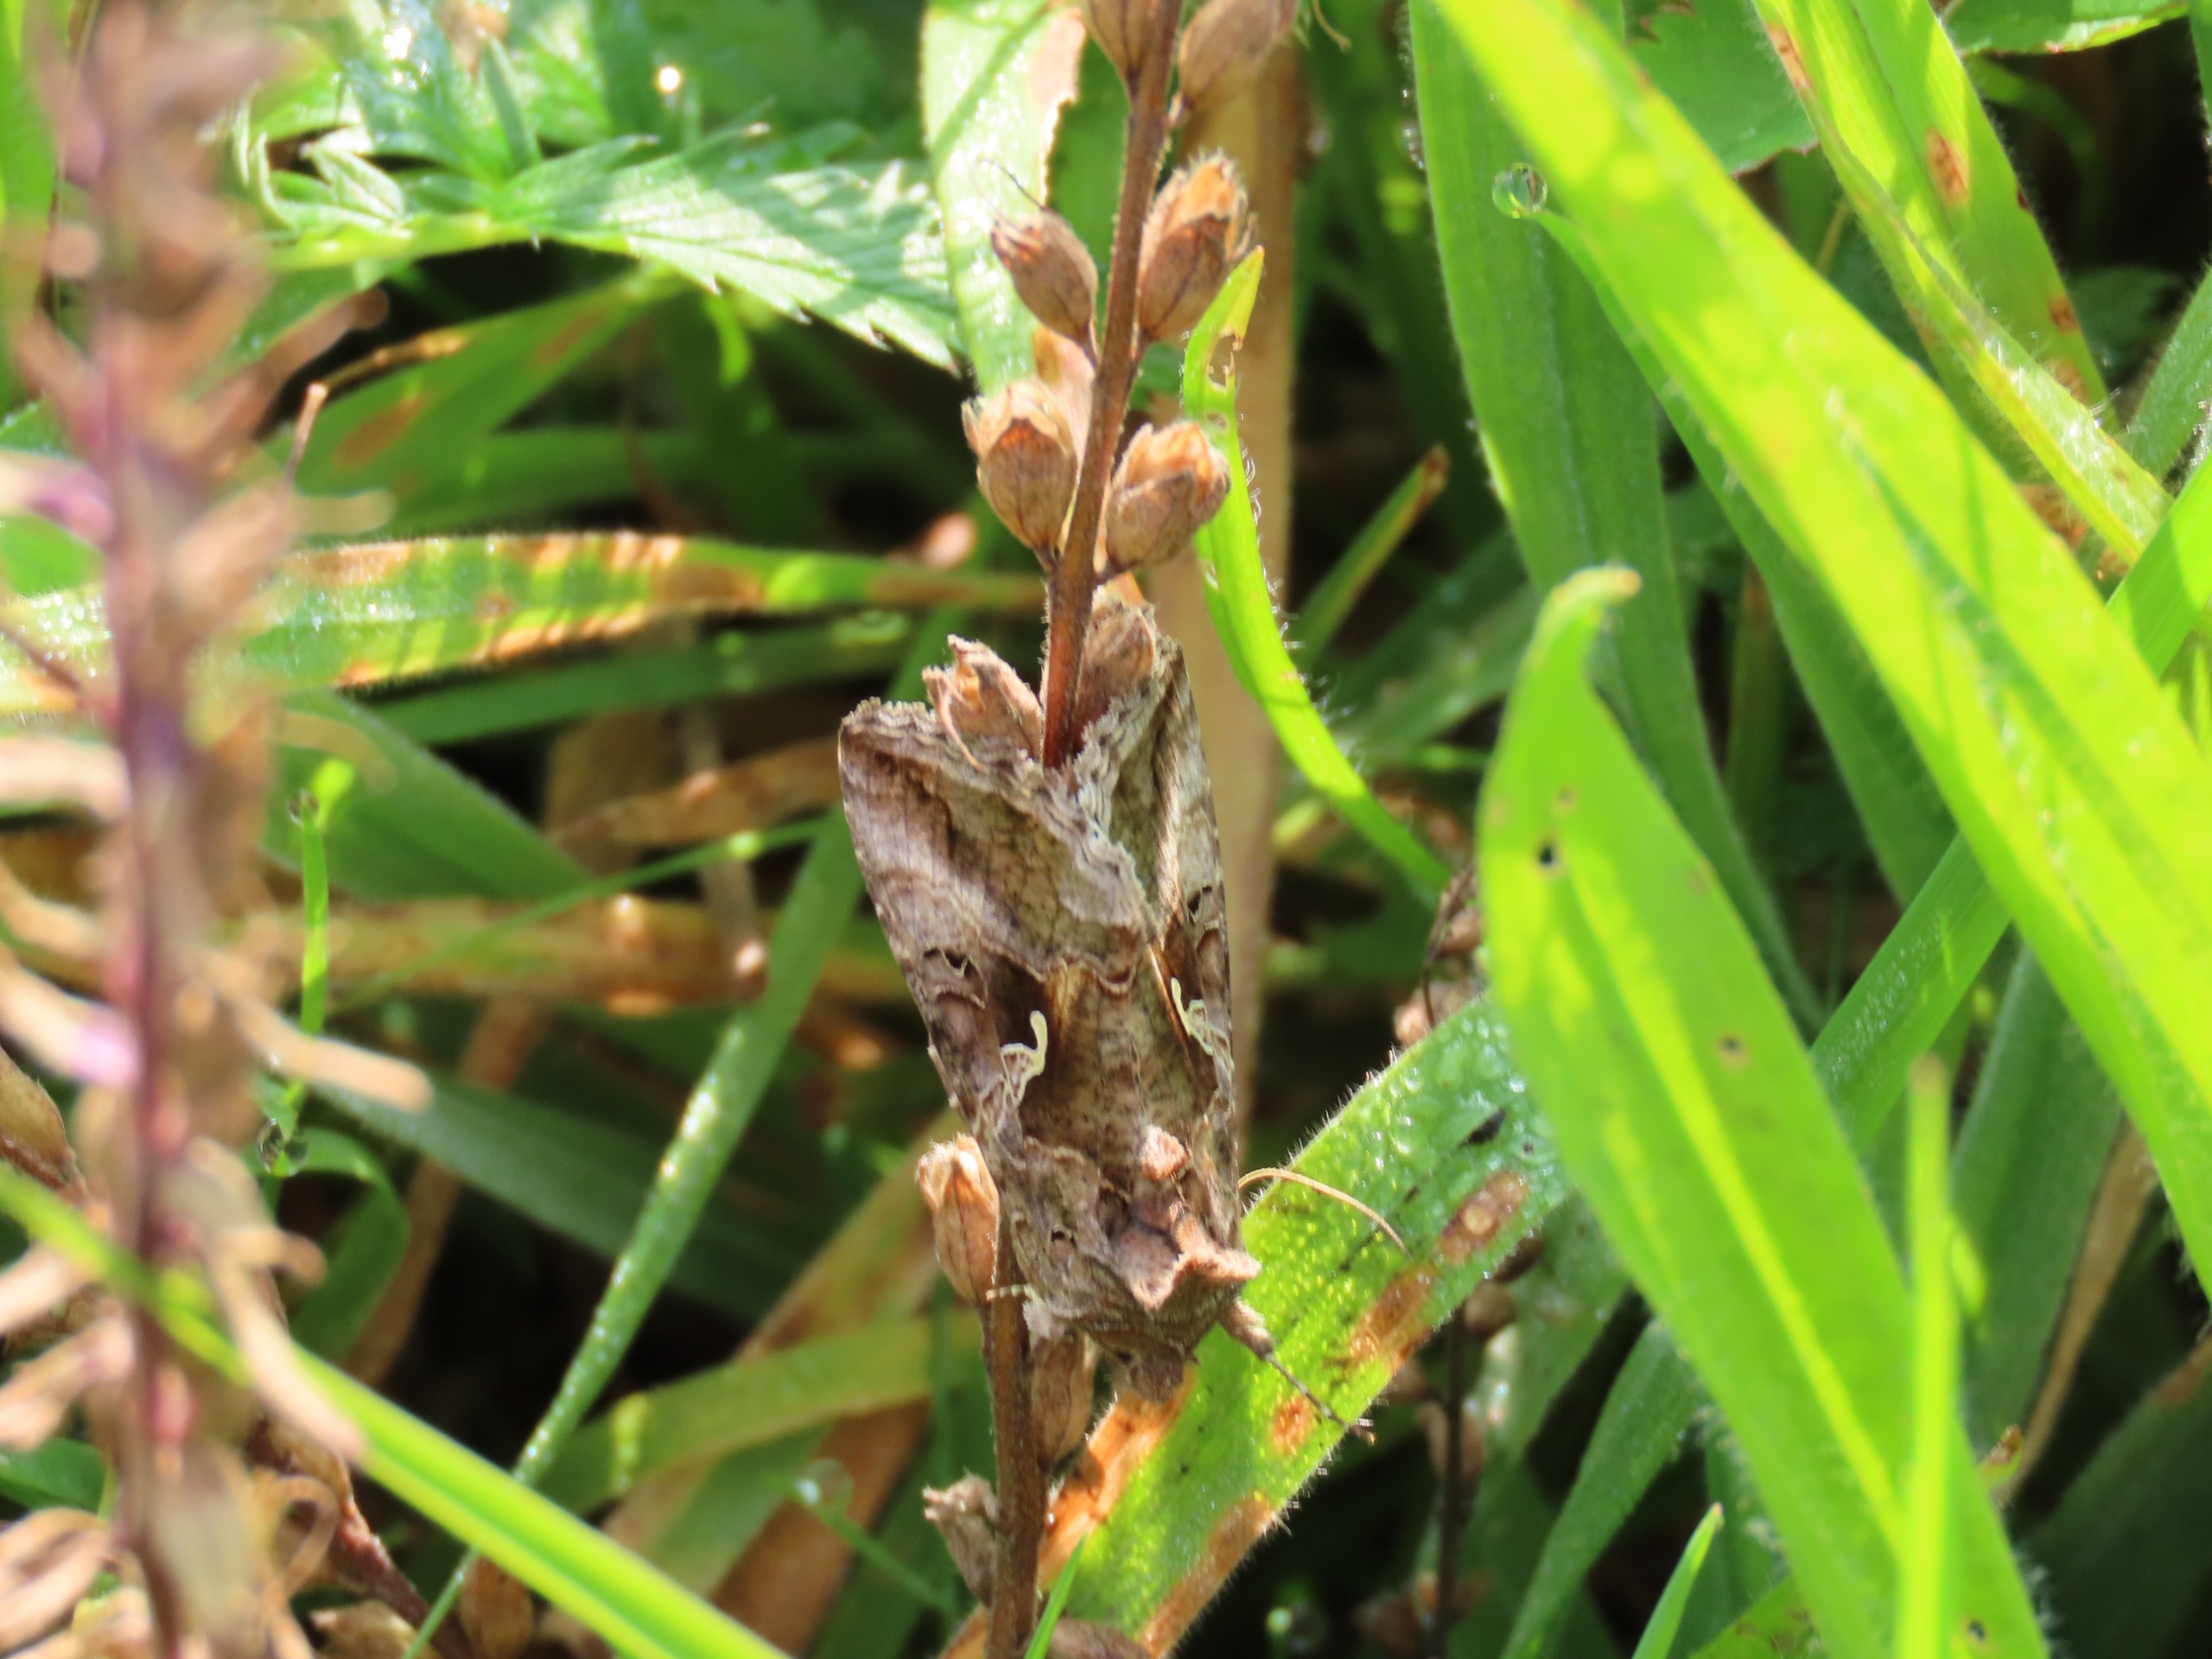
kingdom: Animalia
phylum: Arthropoda
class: Insecta
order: Lepidoptera
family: Noctuidae
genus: Autographa
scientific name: Autographa gamma
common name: Gammaugle
